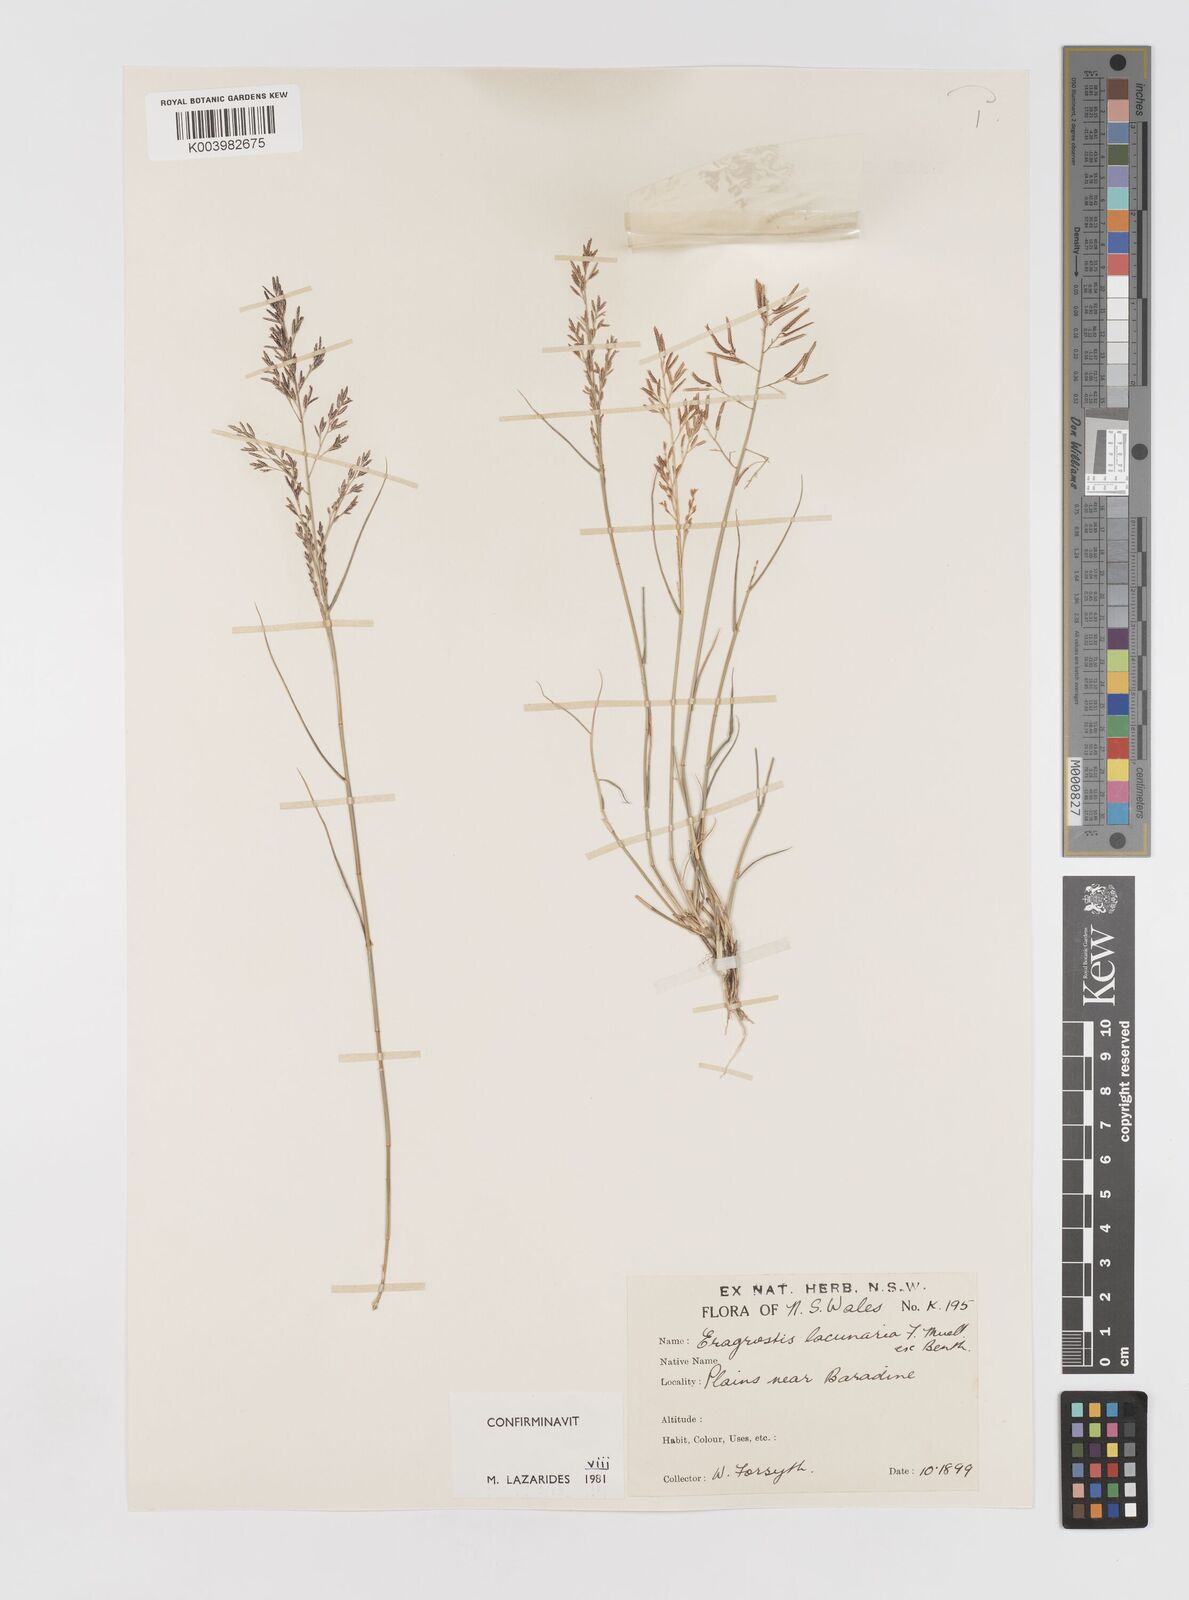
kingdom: Plantae
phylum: Tracheophyta
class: Liliopsida
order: Poales
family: Poaceae
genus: Eragrostis
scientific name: Eragrostis lacunaria
